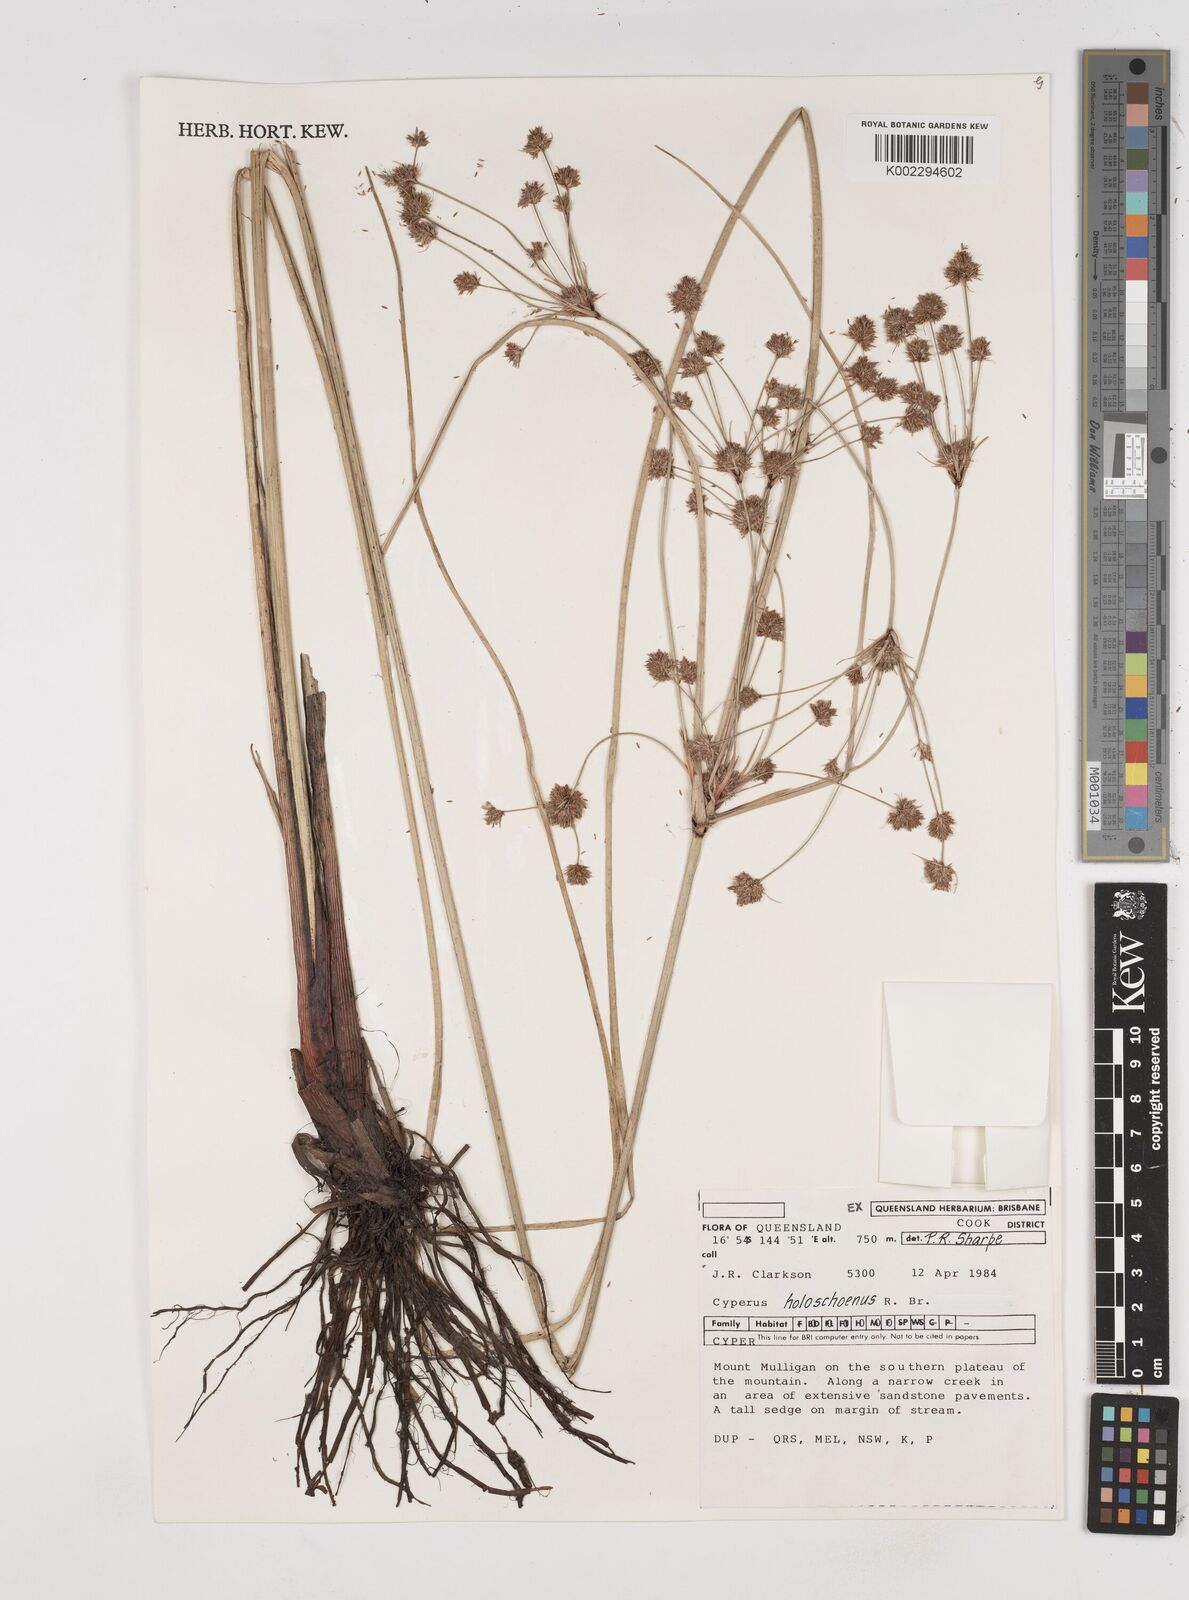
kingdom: Plantae
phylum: Tracheophyta
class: Liliopsida
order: Poales
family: Cyperaceae
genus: Cyperus
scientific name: Cyperus holoschoenus
